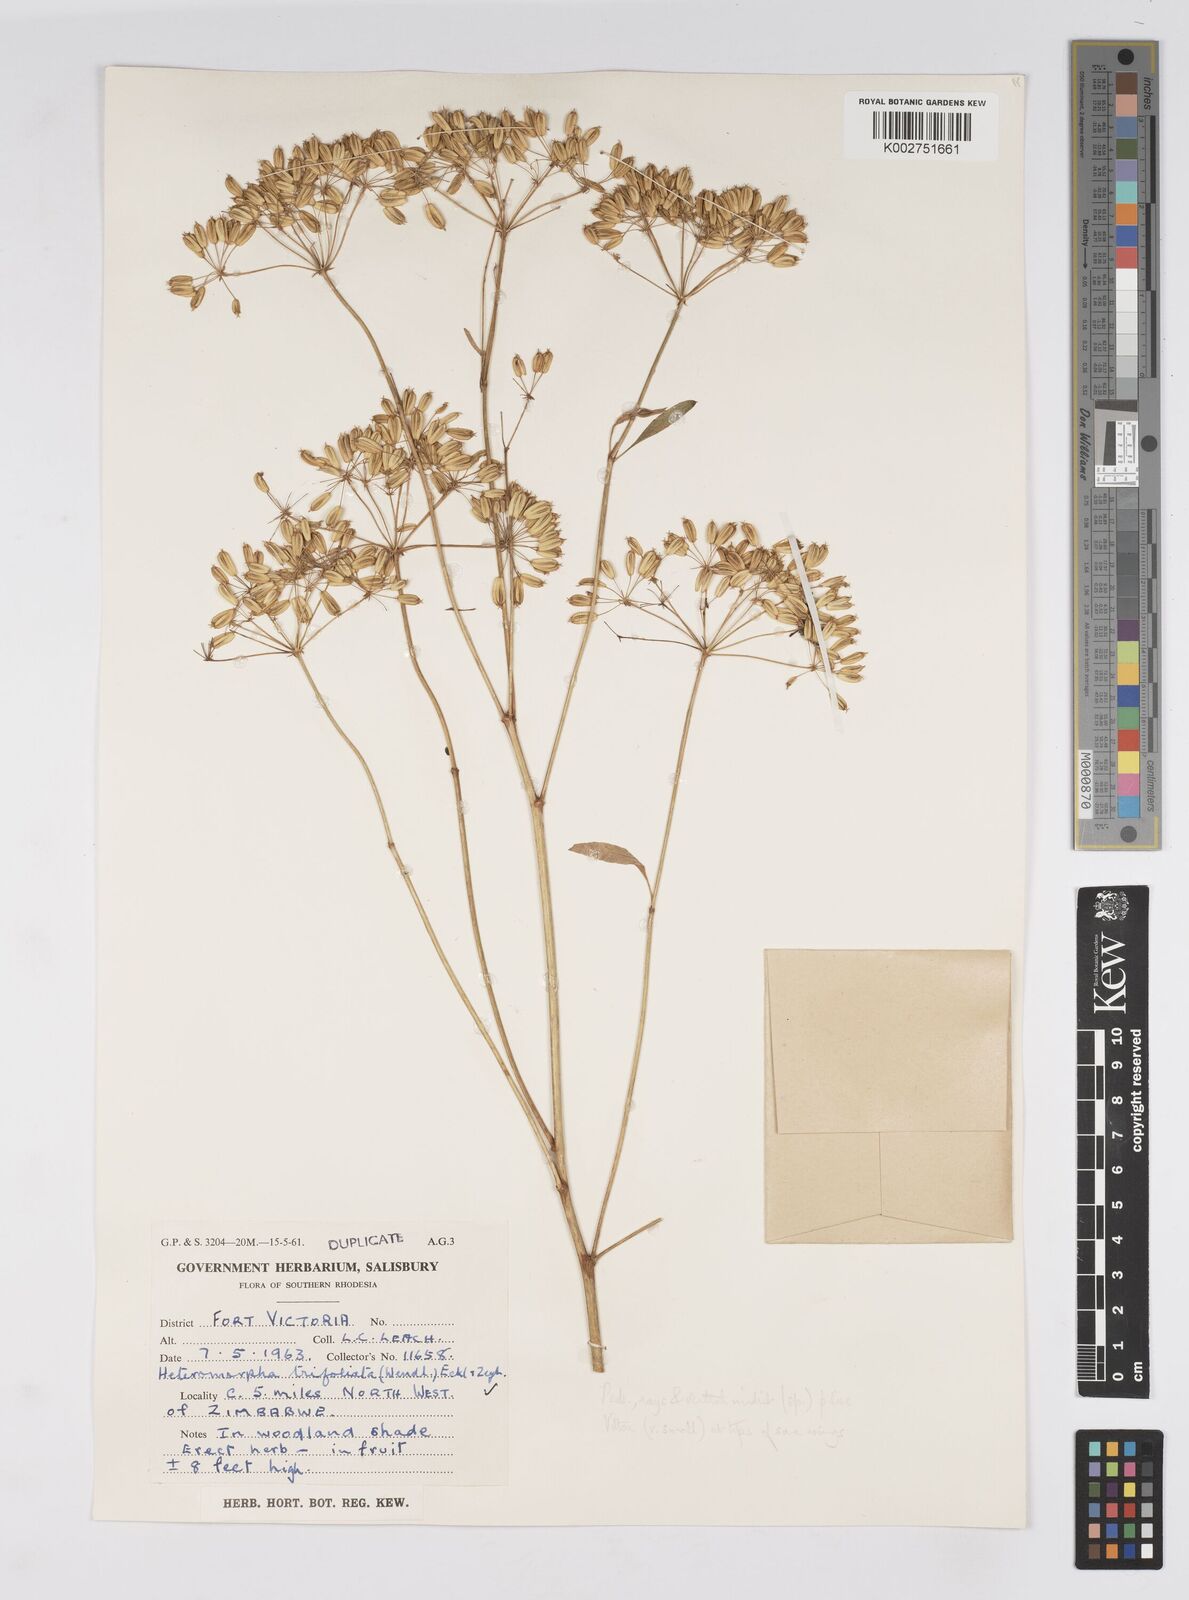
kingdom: Plantae
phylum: Tracheophyta
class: Magnoliopsida
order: Apiales
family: Apiaceae
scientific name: Apiaceae
